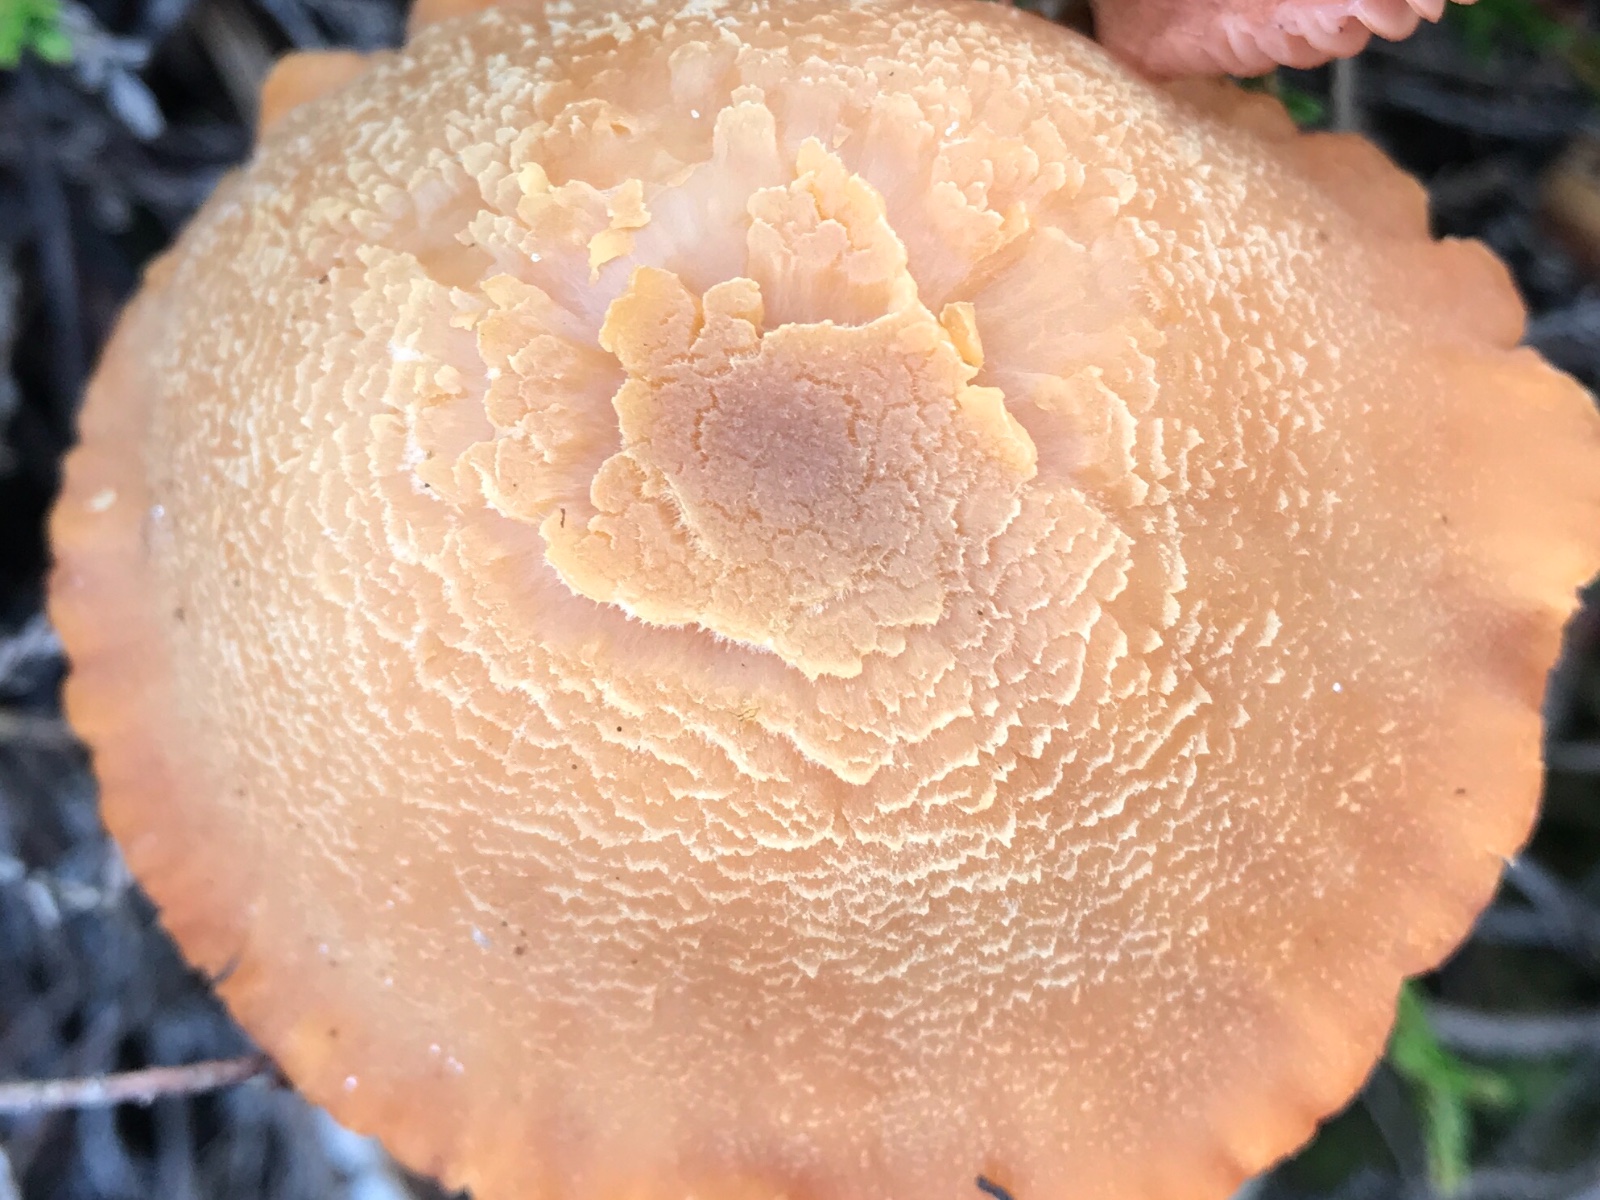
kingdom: Fungi
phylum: Basidiomycota
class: Agaricomycetes
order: Agaricales
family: Hydnangiaceae
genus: Laccaria
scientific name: Laccaria bicolor
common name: tvefarvet ametysthat
